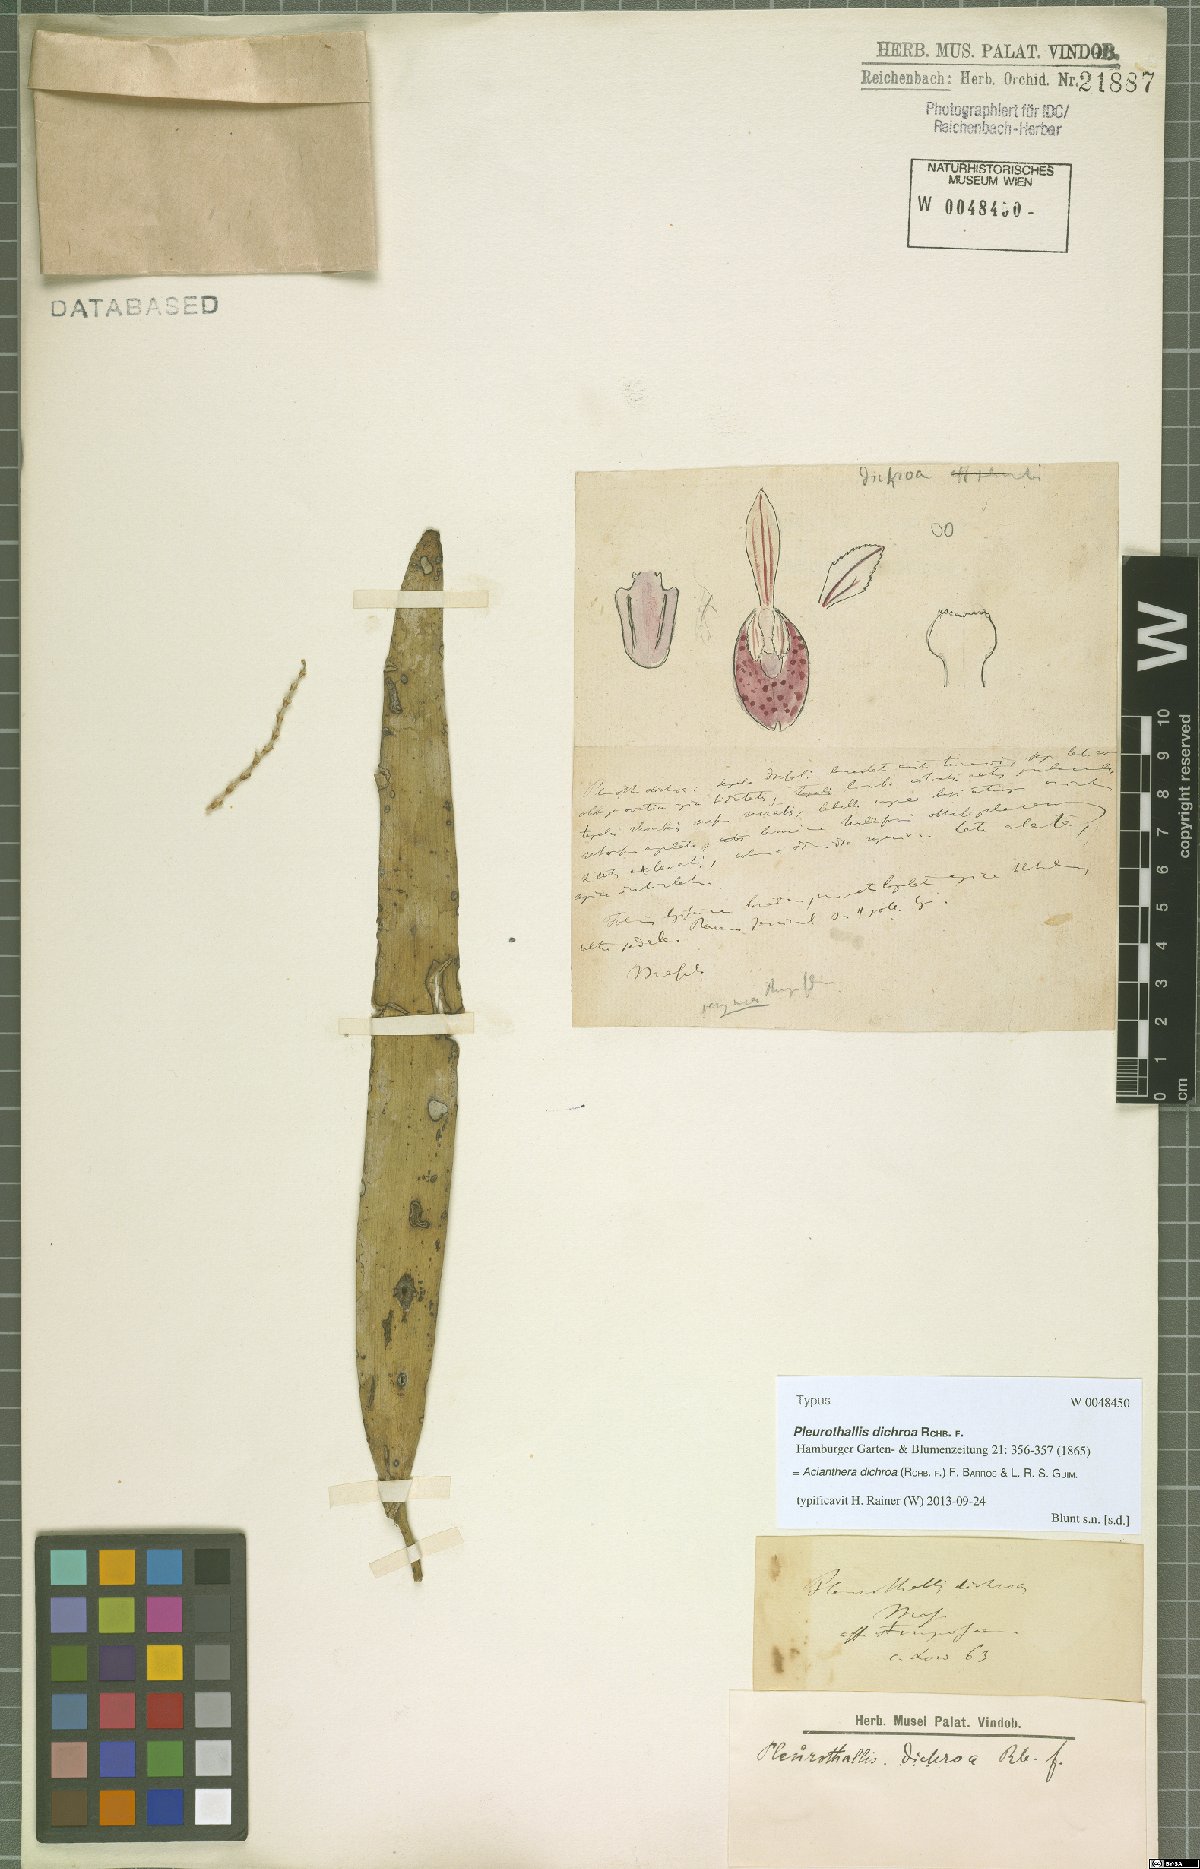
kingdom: Plantae
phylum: Tracheophyta
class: Liliopsida
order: Asparagales
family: Orchidaceae
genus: Acianthera
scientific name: Acianthera dichroa
